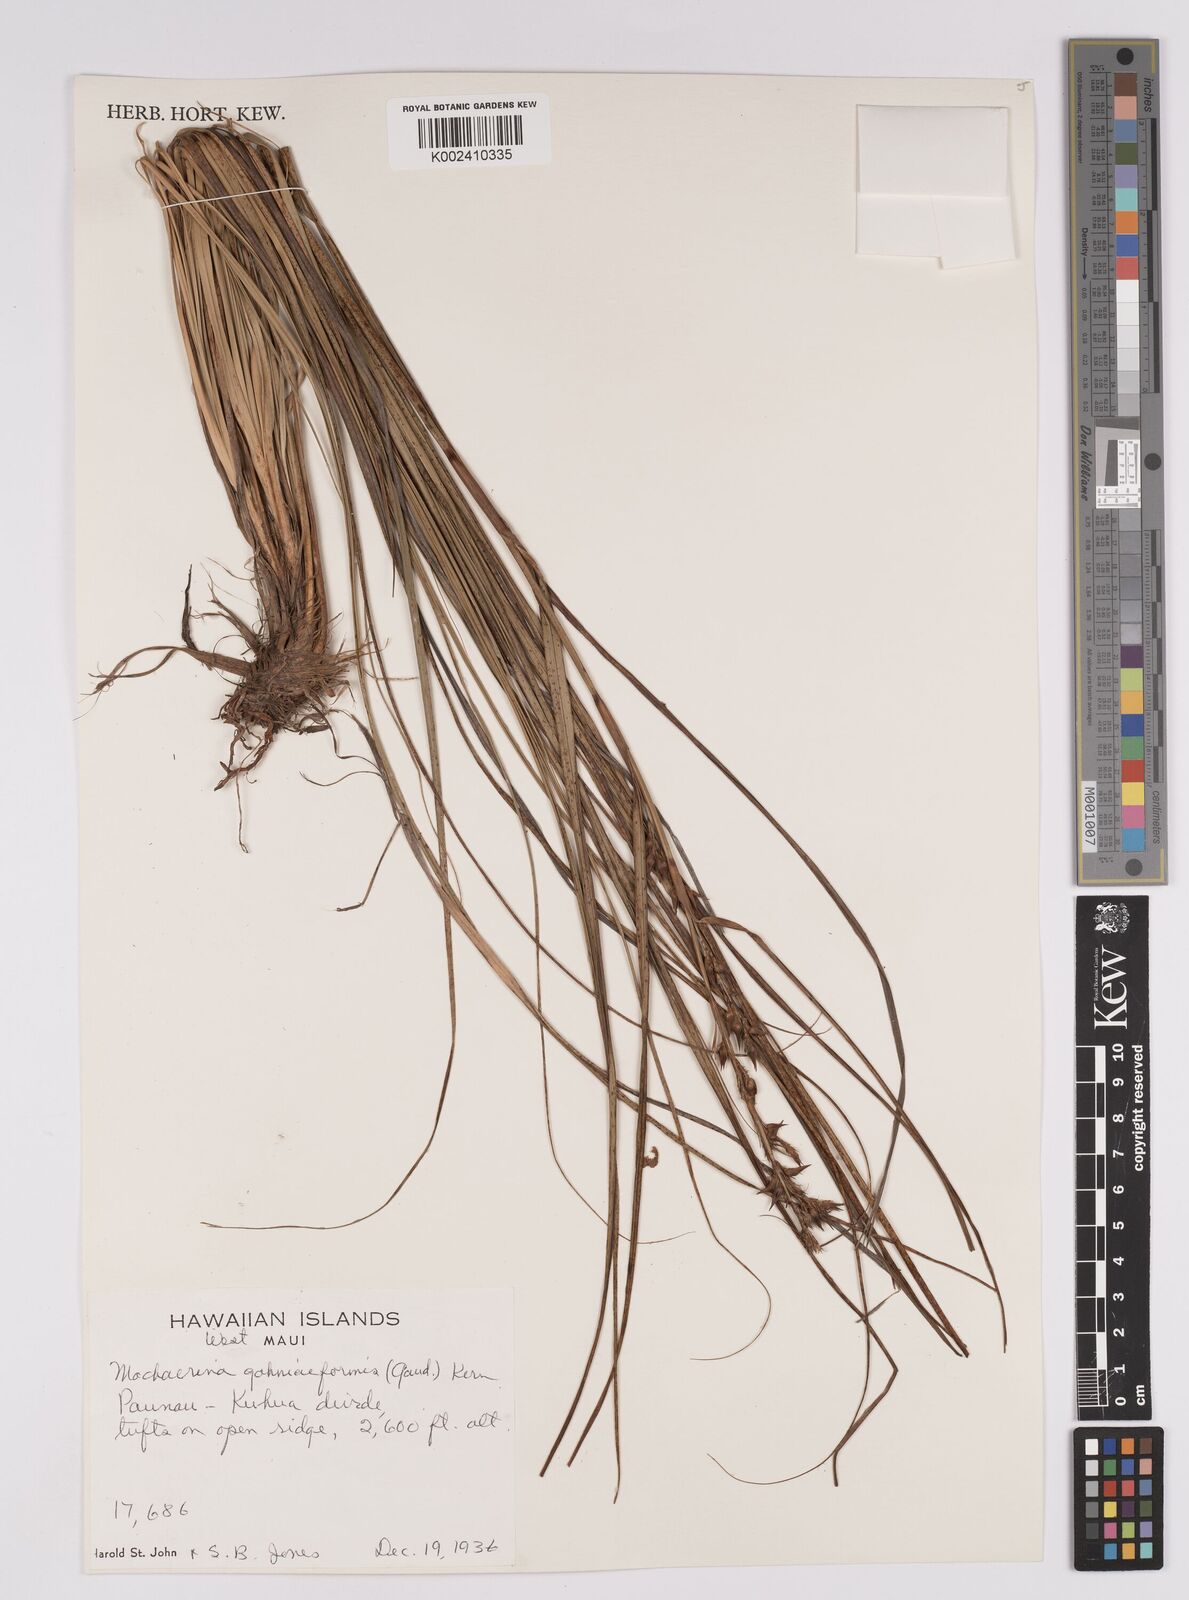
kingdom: Plantae
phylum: Tracheophyta
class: Liliopsida
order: Poales
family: Cyperaceae
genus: Morelotia
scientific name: Morelotia gahniiformis
